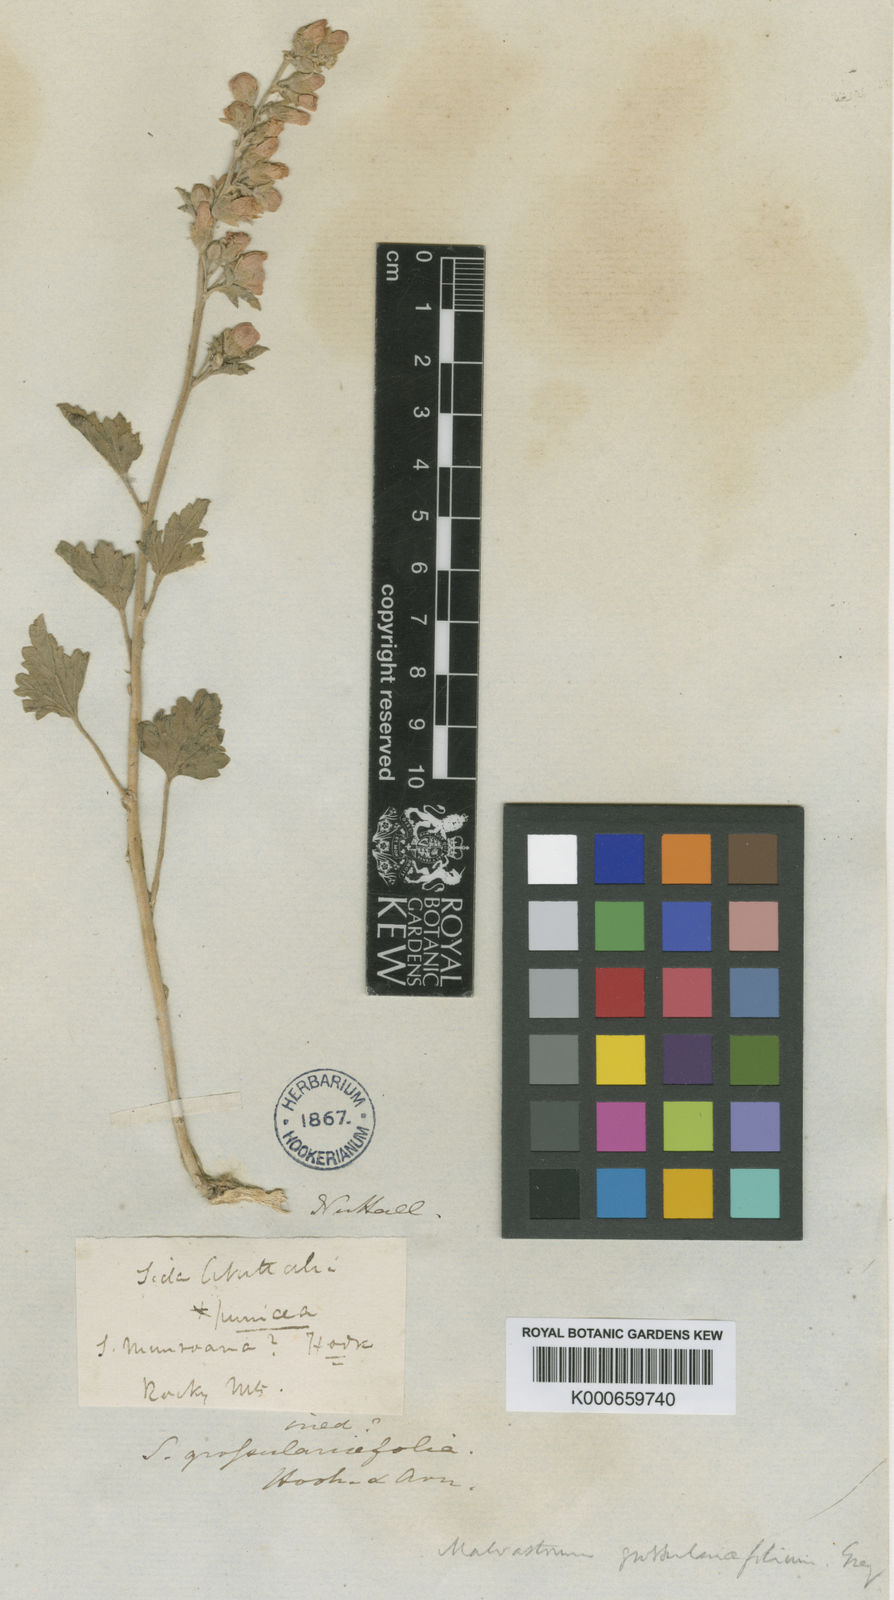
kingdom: Plantae
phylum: Tracheophyta
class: Magnoliopsida
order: Malvales
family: Malvaceae
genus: Sphaeralcea
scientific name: Sphaeralcea grossulariifolia
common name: Current-leaf globe-mallow
